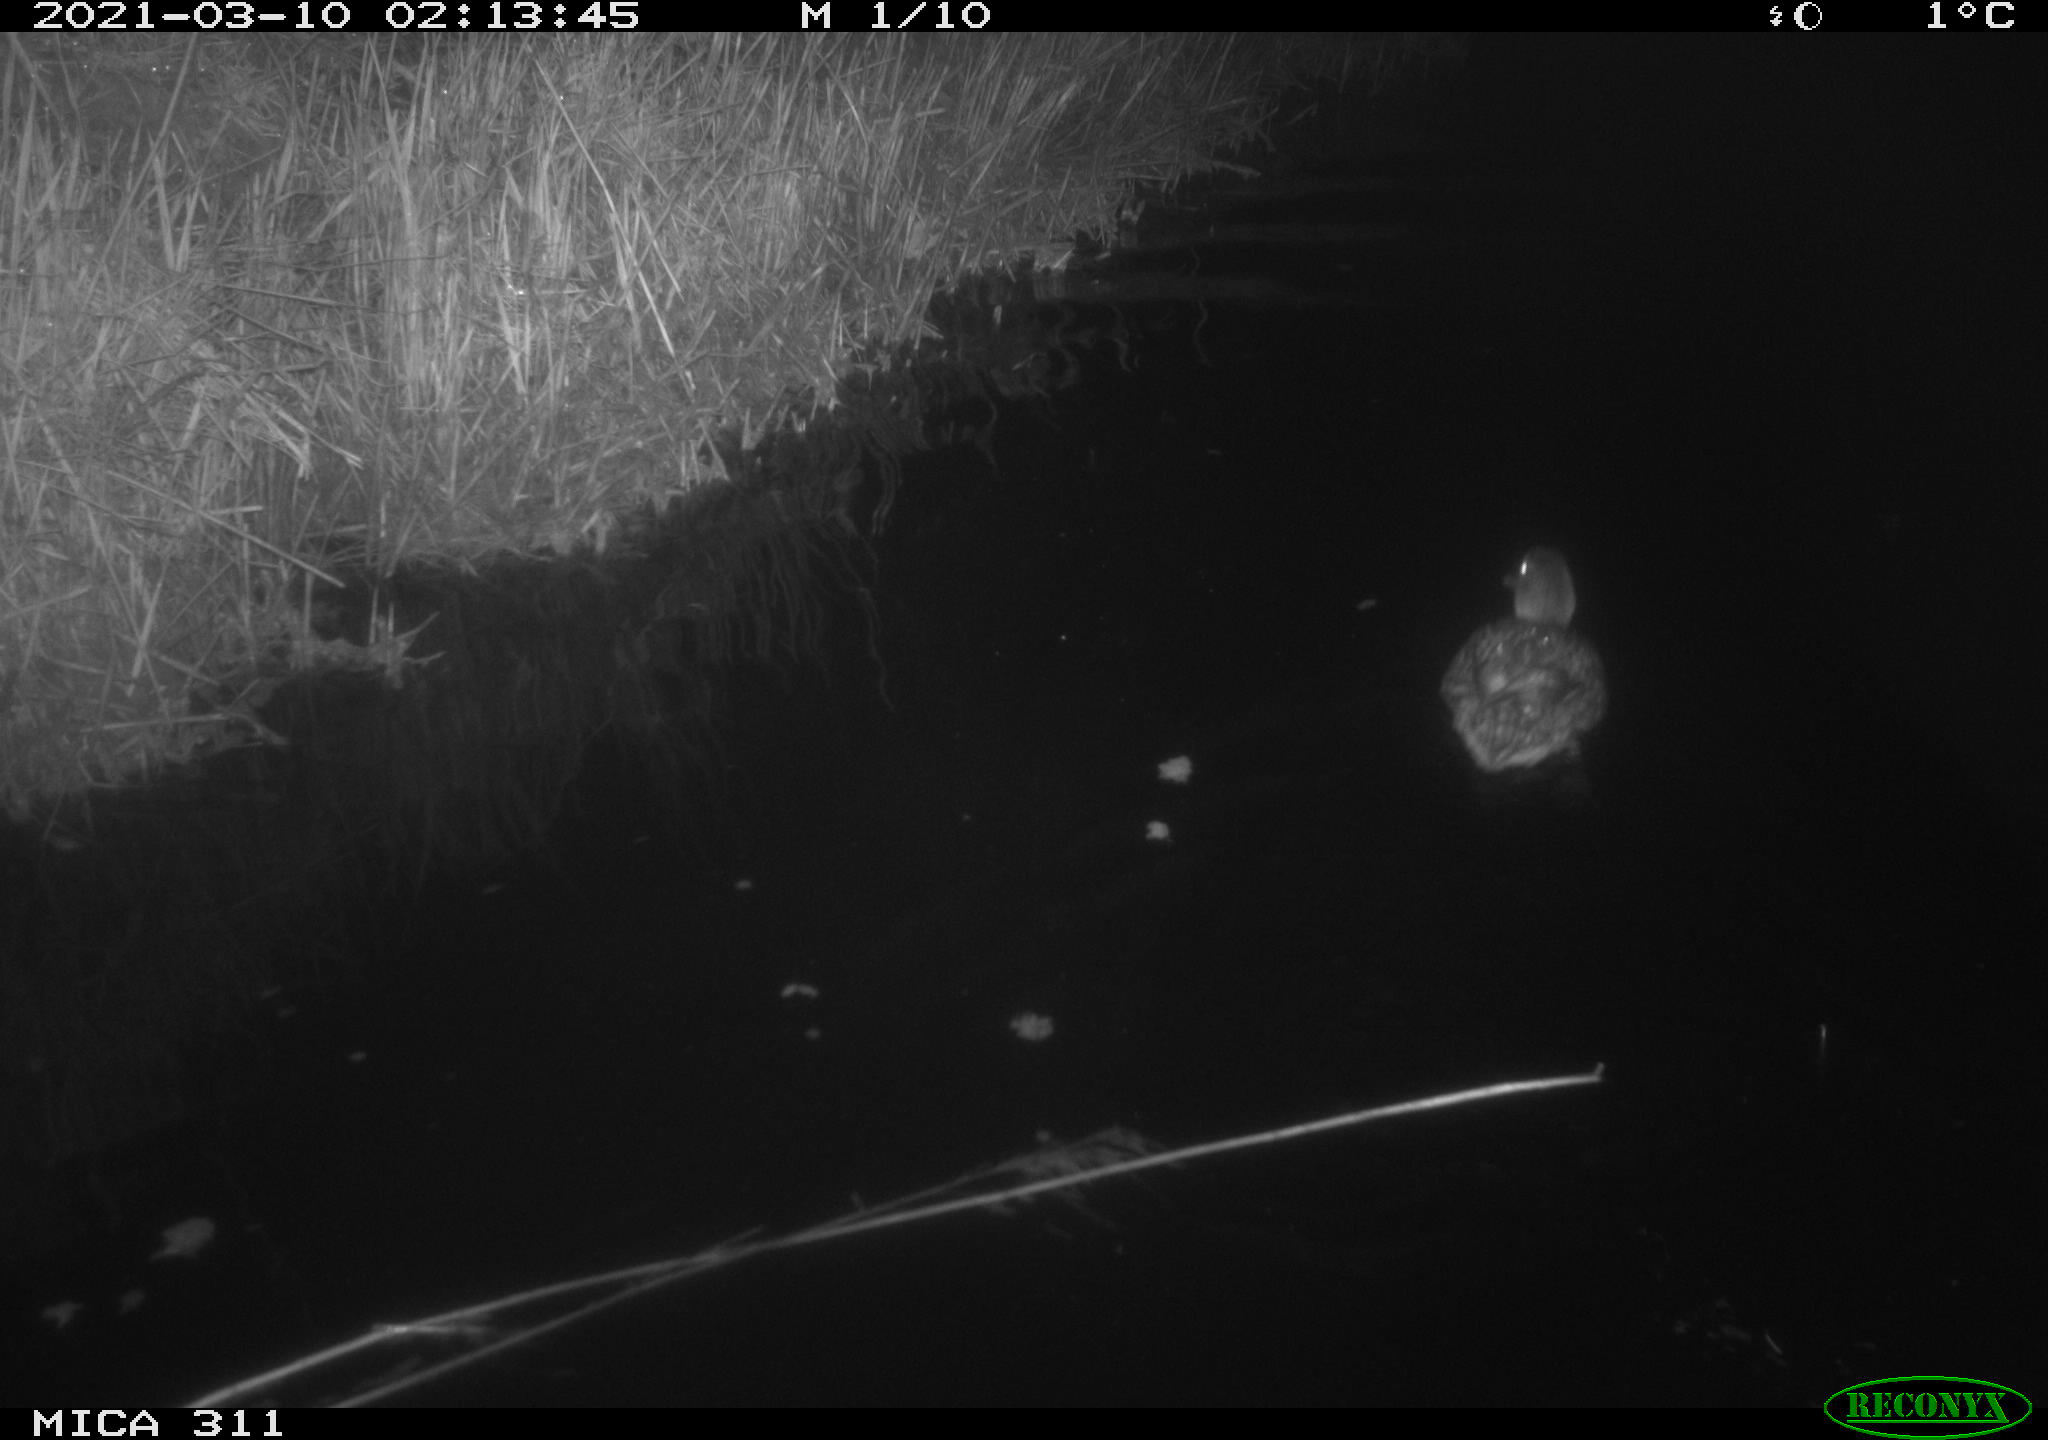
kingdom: Animalia
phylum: Chordata
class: Aves
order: Anseriformes
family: Anatidae
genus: Anas
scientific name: Anas platyrhynchos
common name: Mallard
